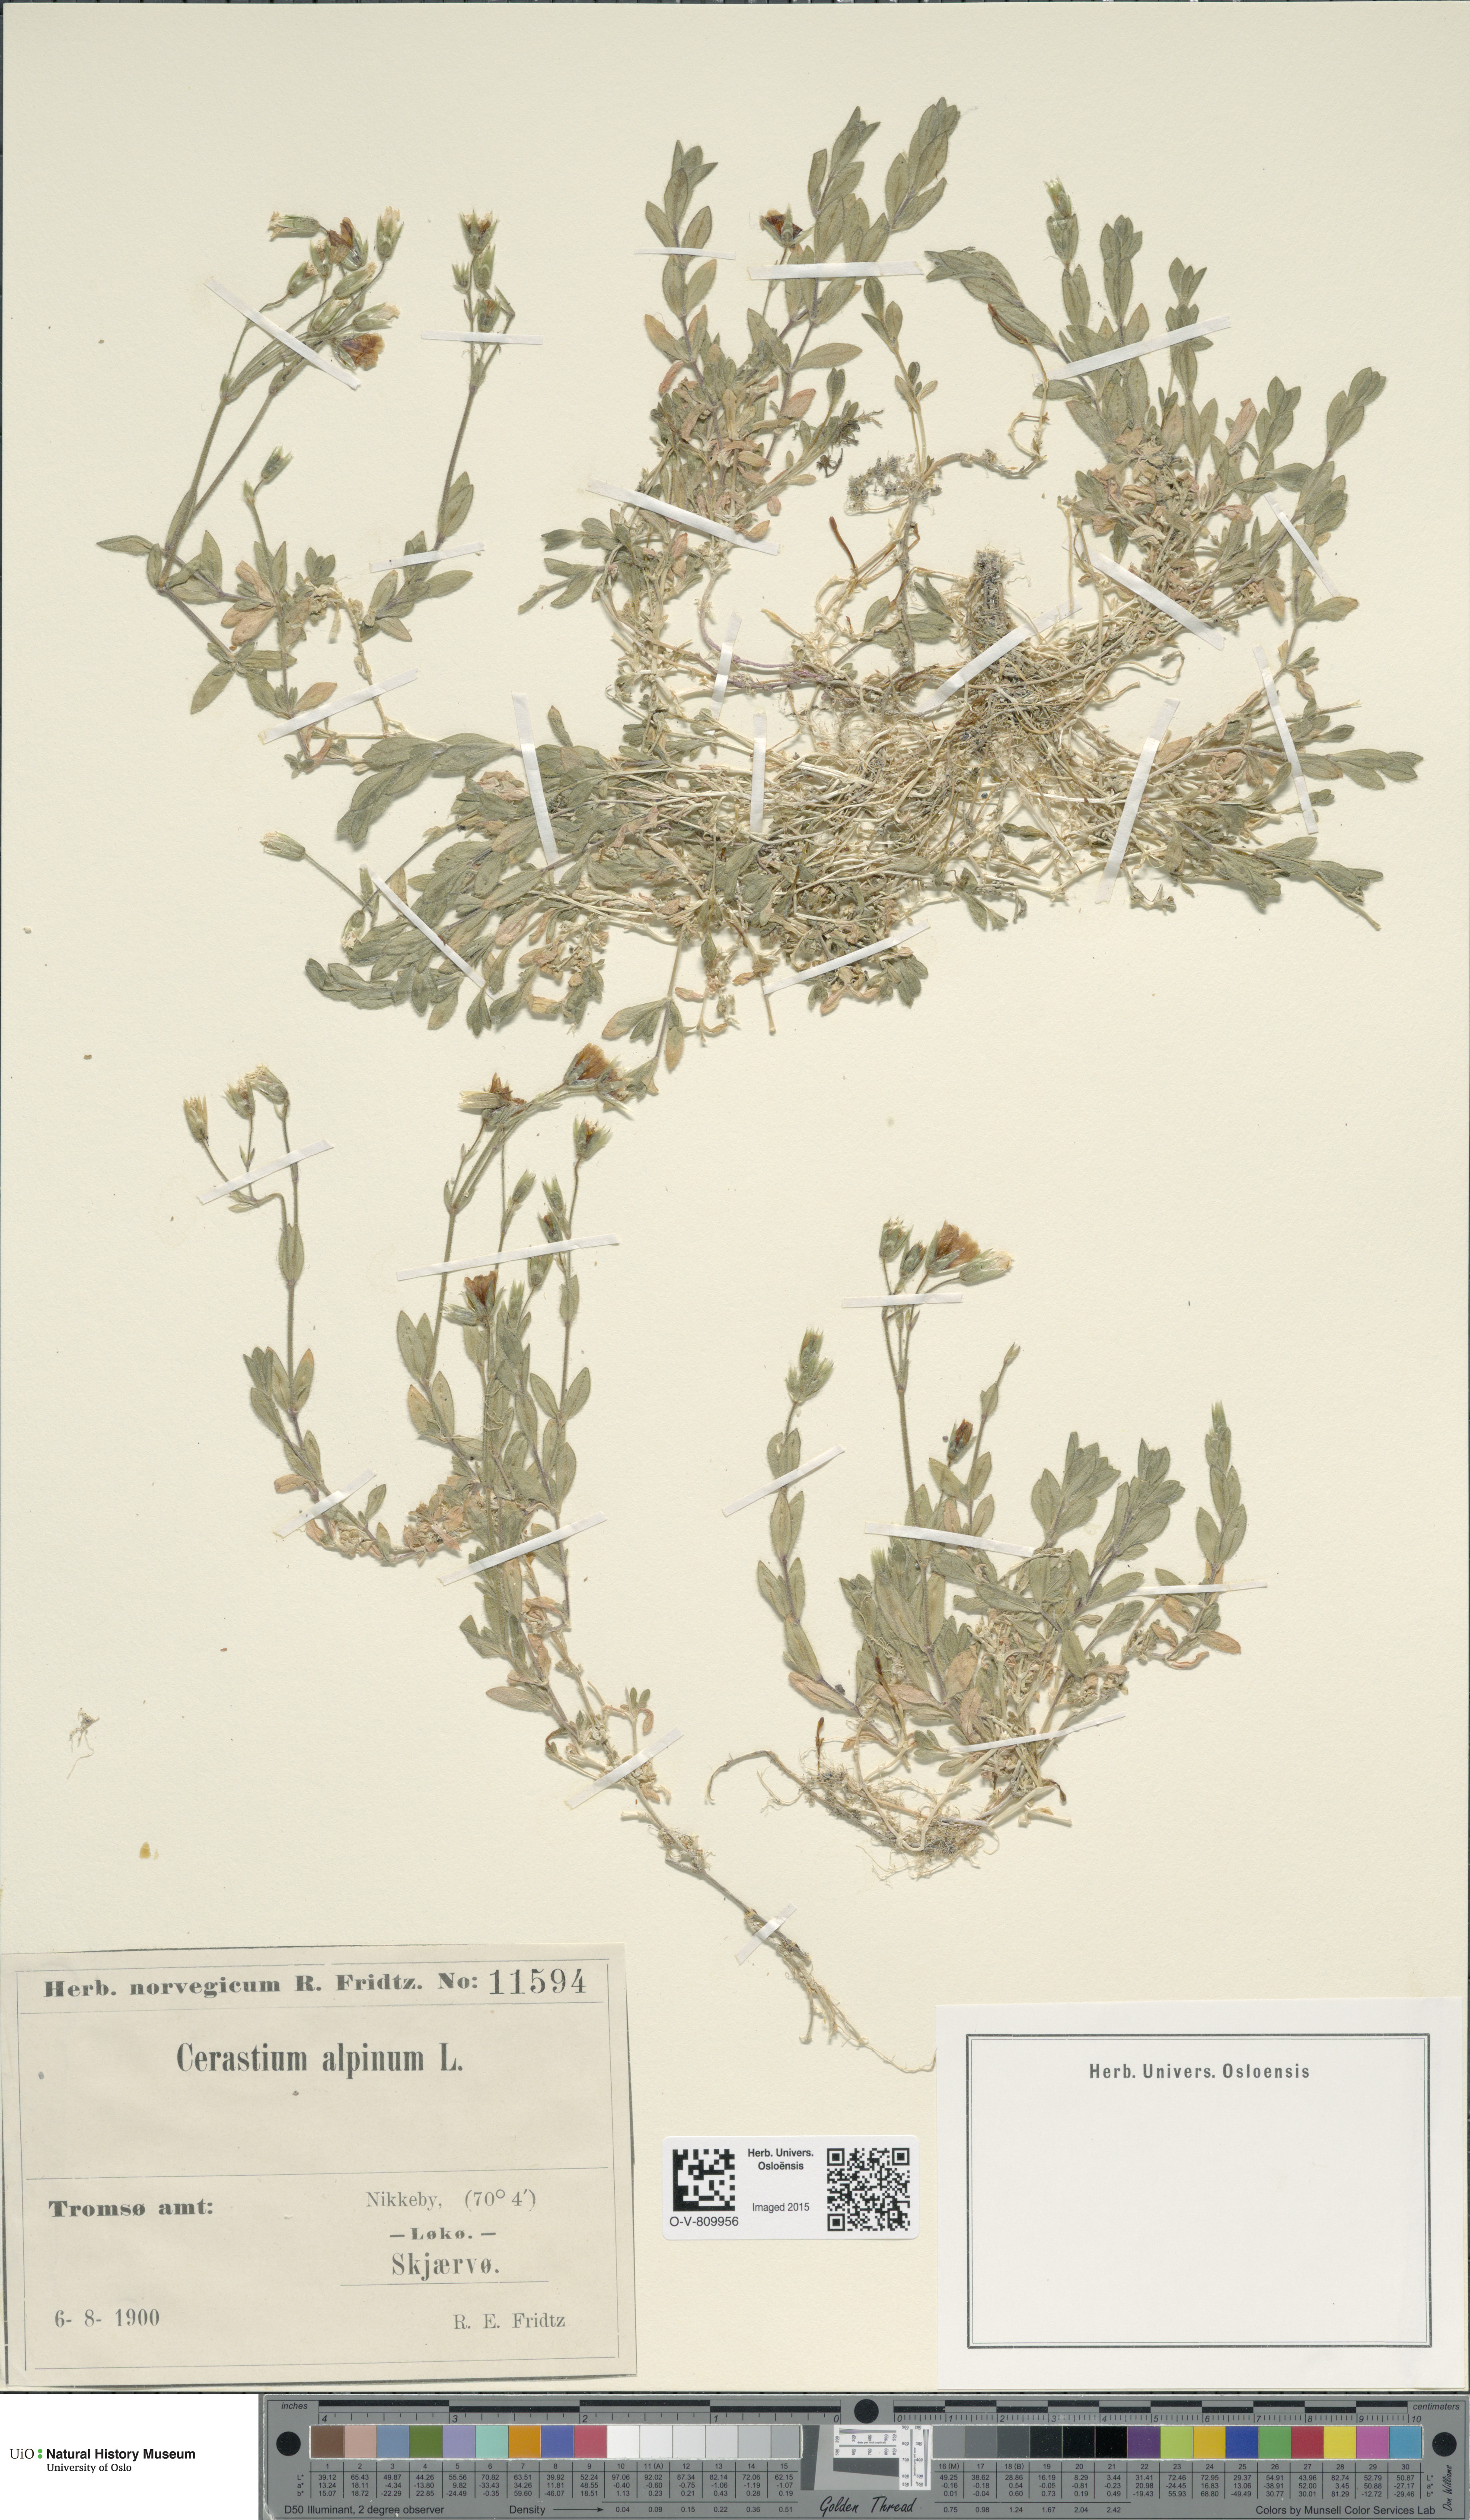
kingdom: Plantae
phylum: Tracheophyta
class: Magnoliopsida
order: Caryophyllales
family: Caryophyllaceae
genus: Cerastium
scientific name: Cerastium alpinum
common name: Alpine mouse-ear
